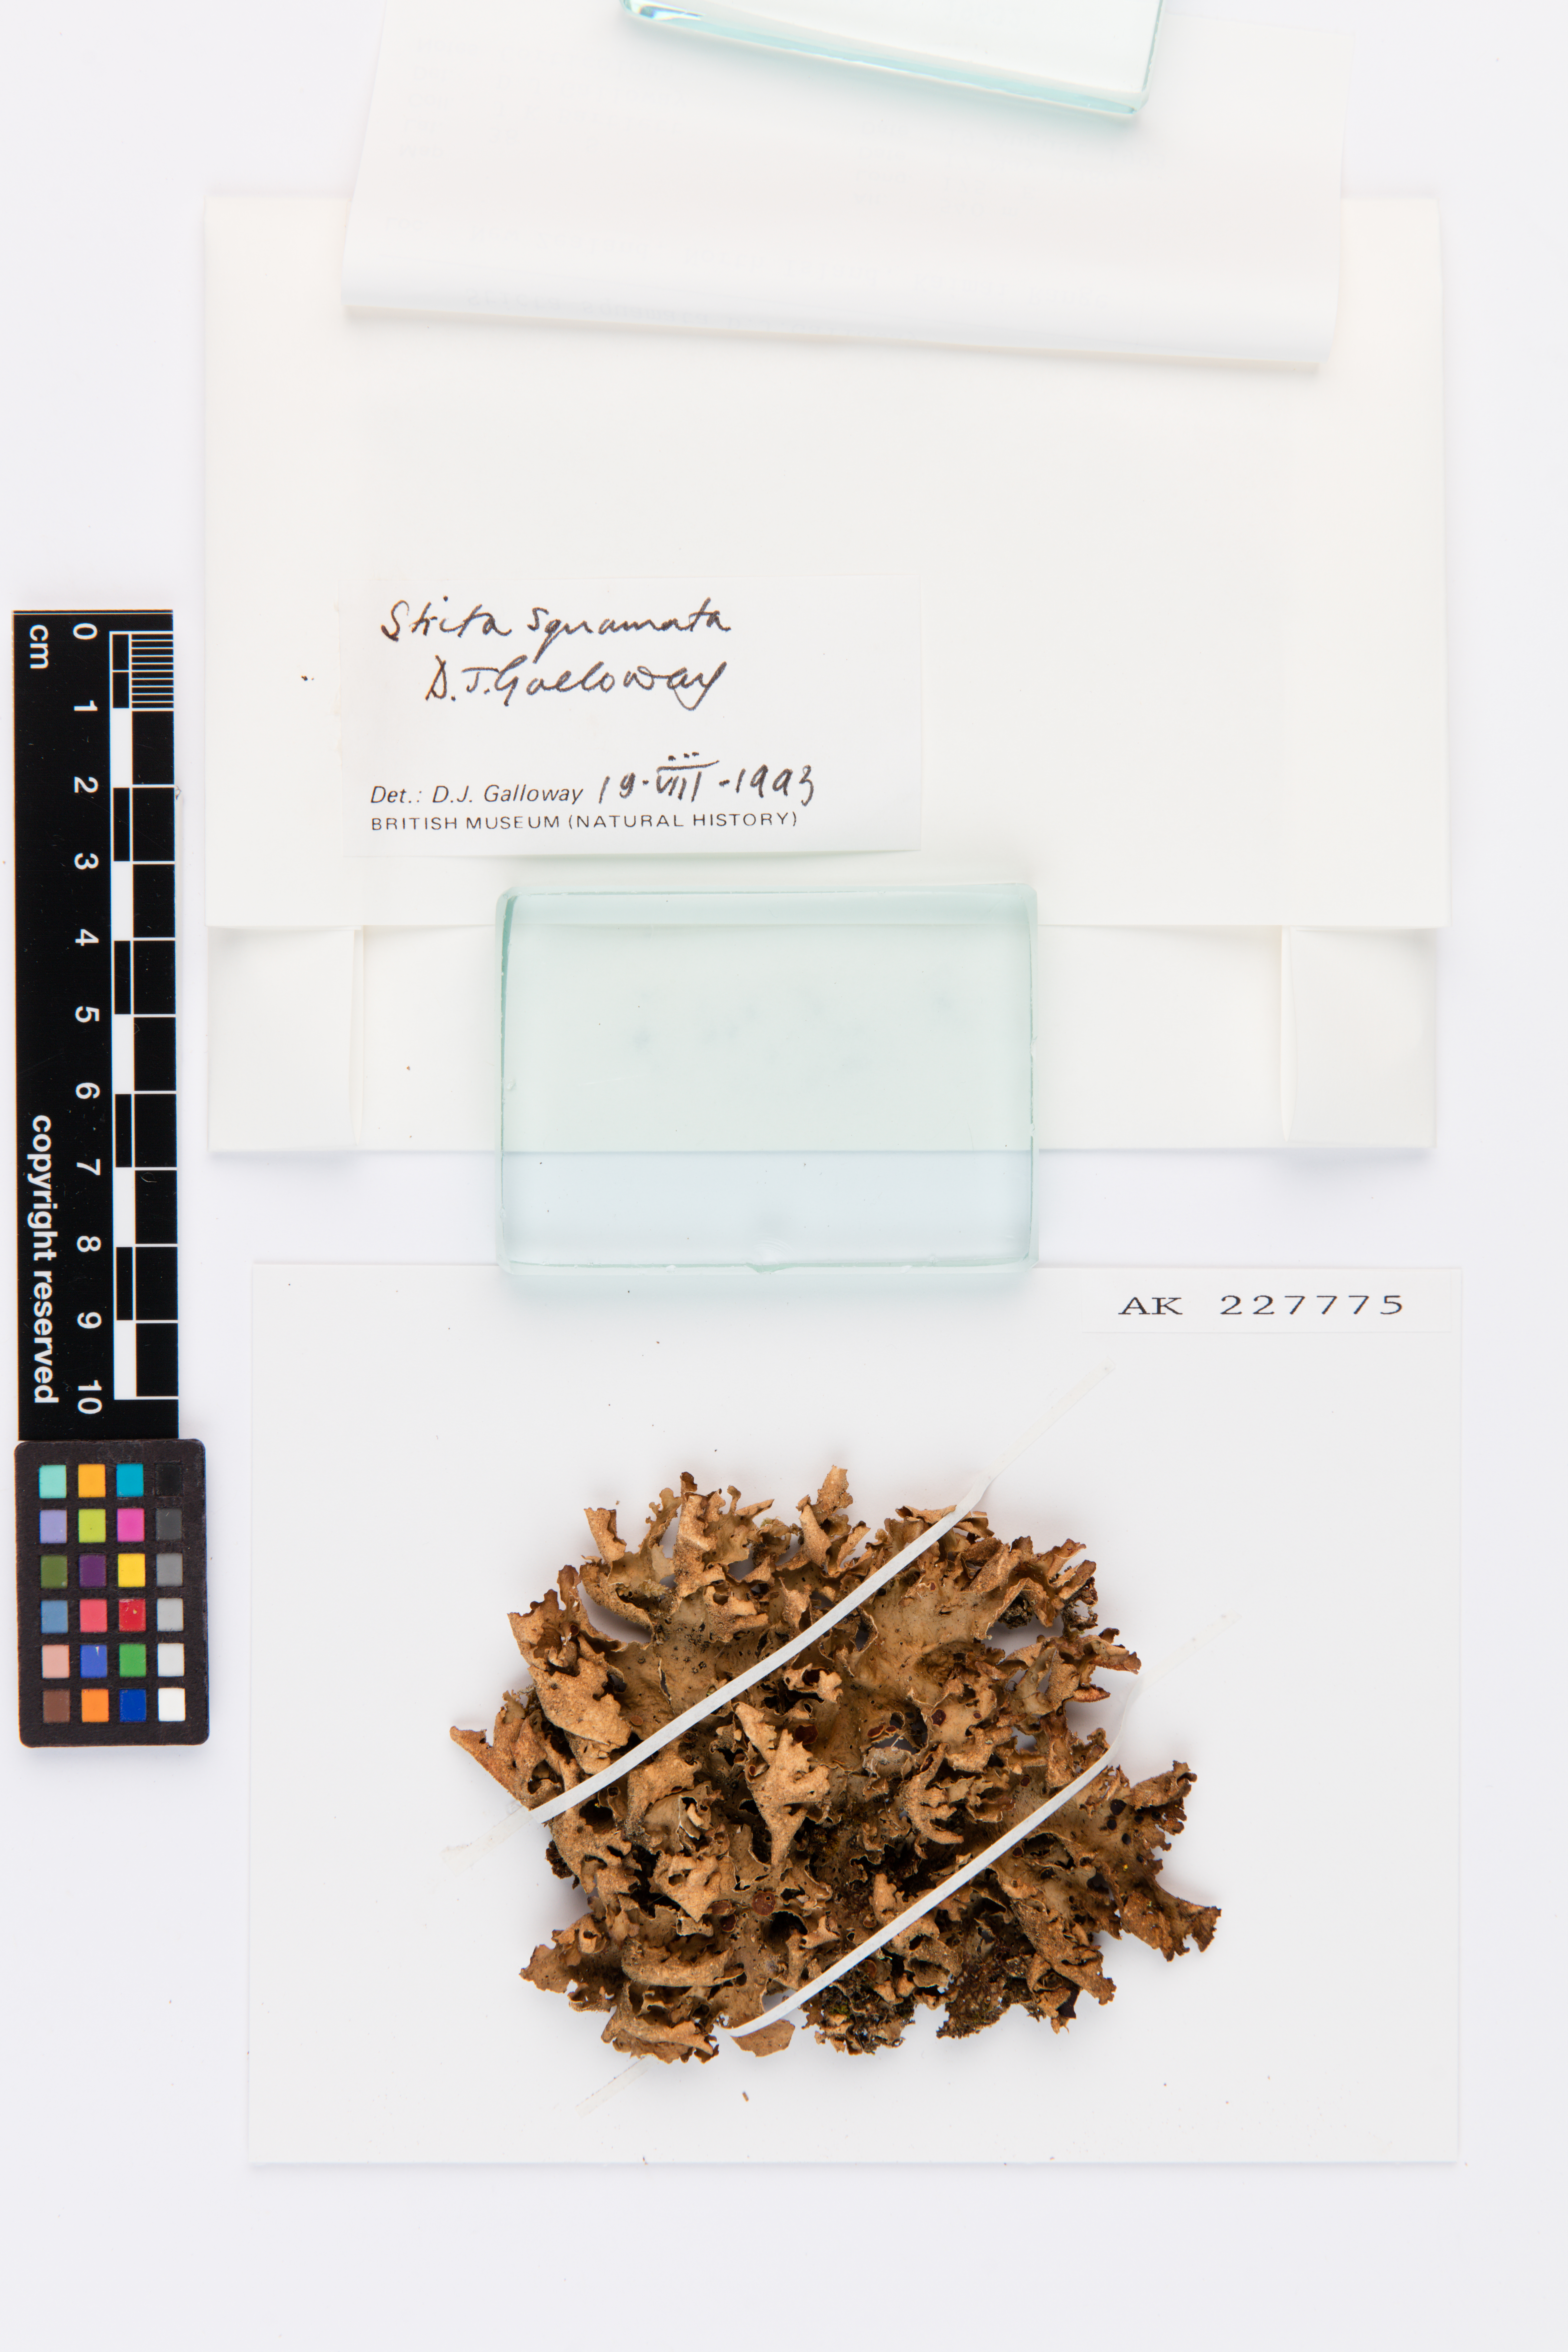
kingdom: Fungi
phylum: Ascomycota
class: Lecanoromycetes
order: Peltigerales
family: Lobariaceae
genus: Sticta
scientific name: Sticta squamata
